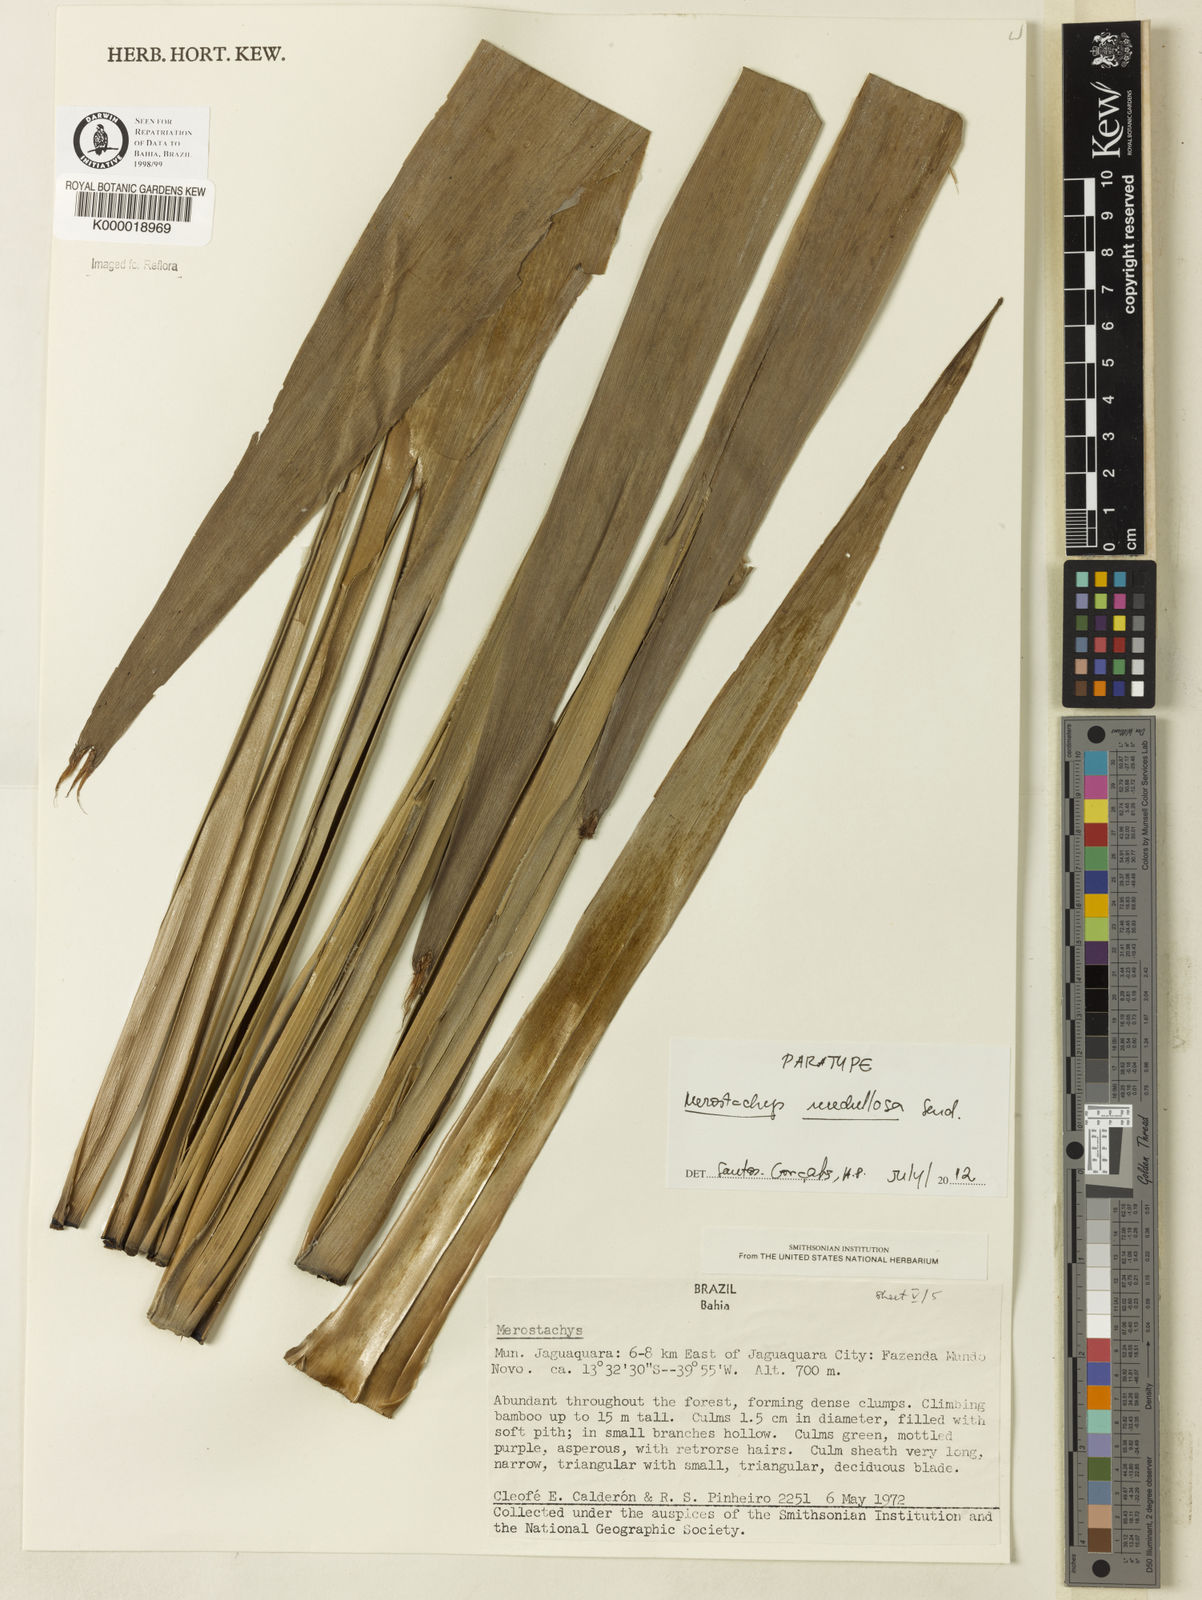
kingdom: Plantae
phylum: Tracheophyta
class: Liliopsida
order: Poales
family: Poaceae
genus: Merostachys
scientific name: Merostachys medullosa
